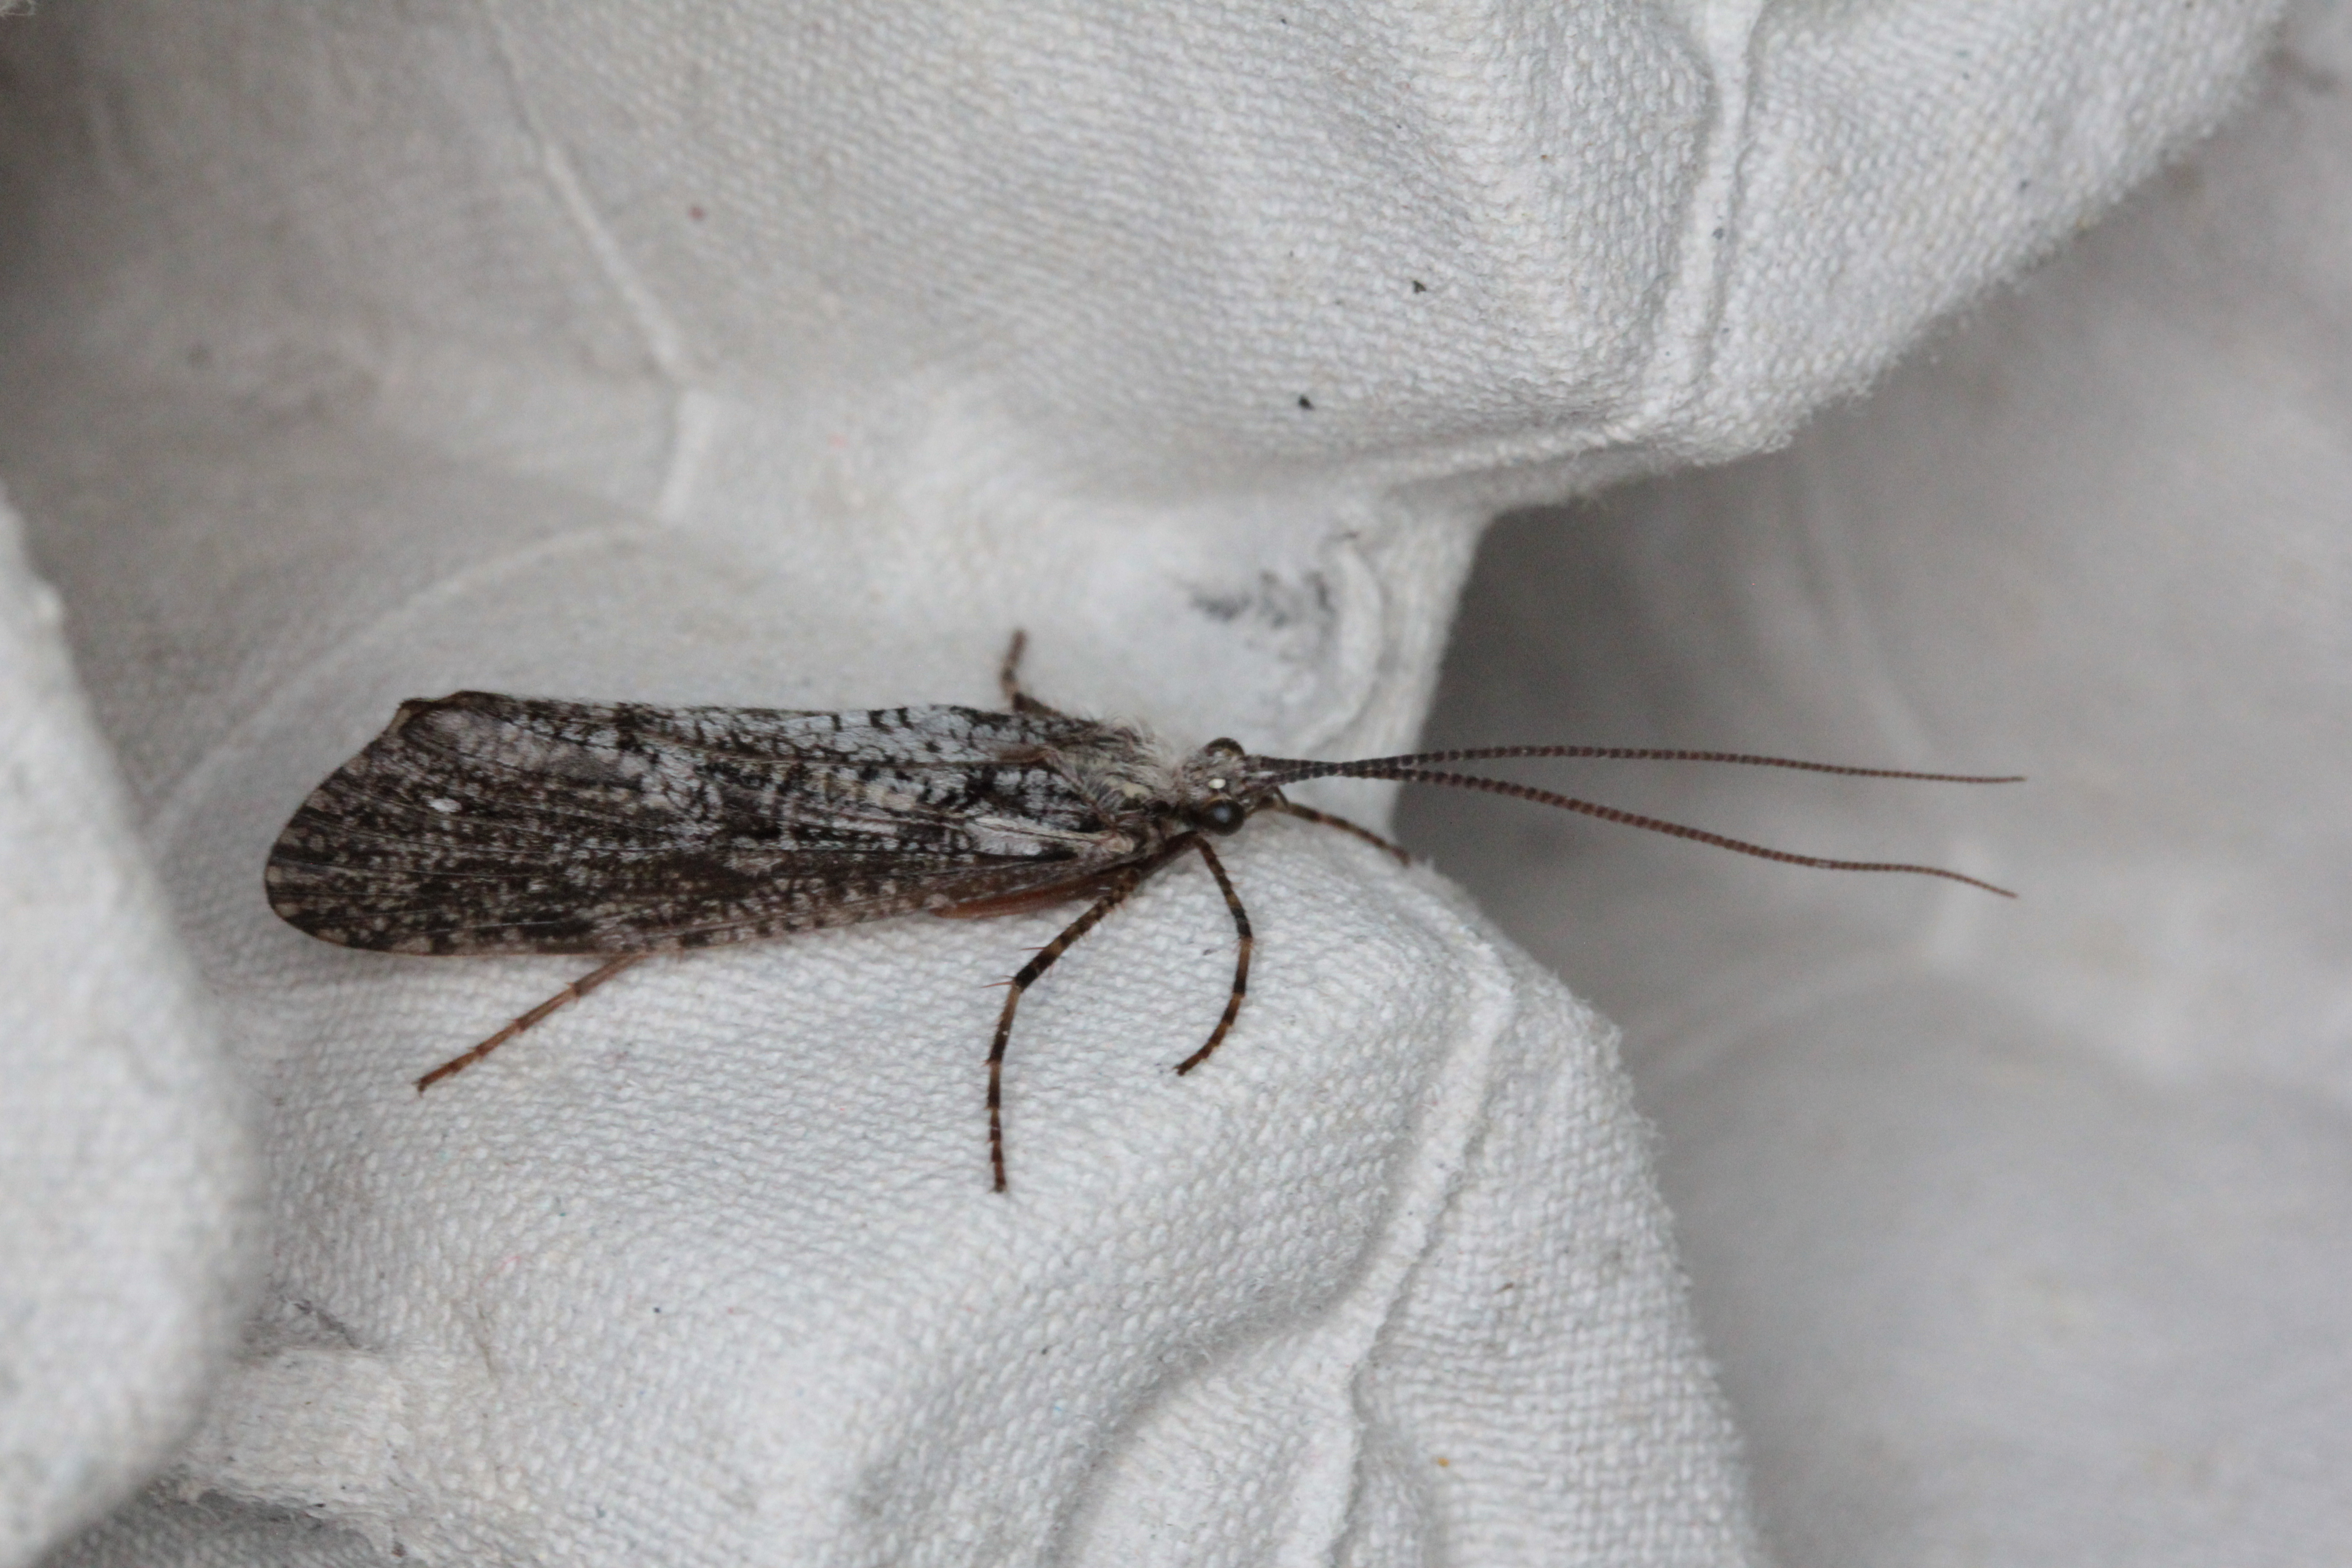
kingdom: Animalia
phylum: Arthropoda
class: Insecta
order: Trichoptera
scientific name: Trichoptera
